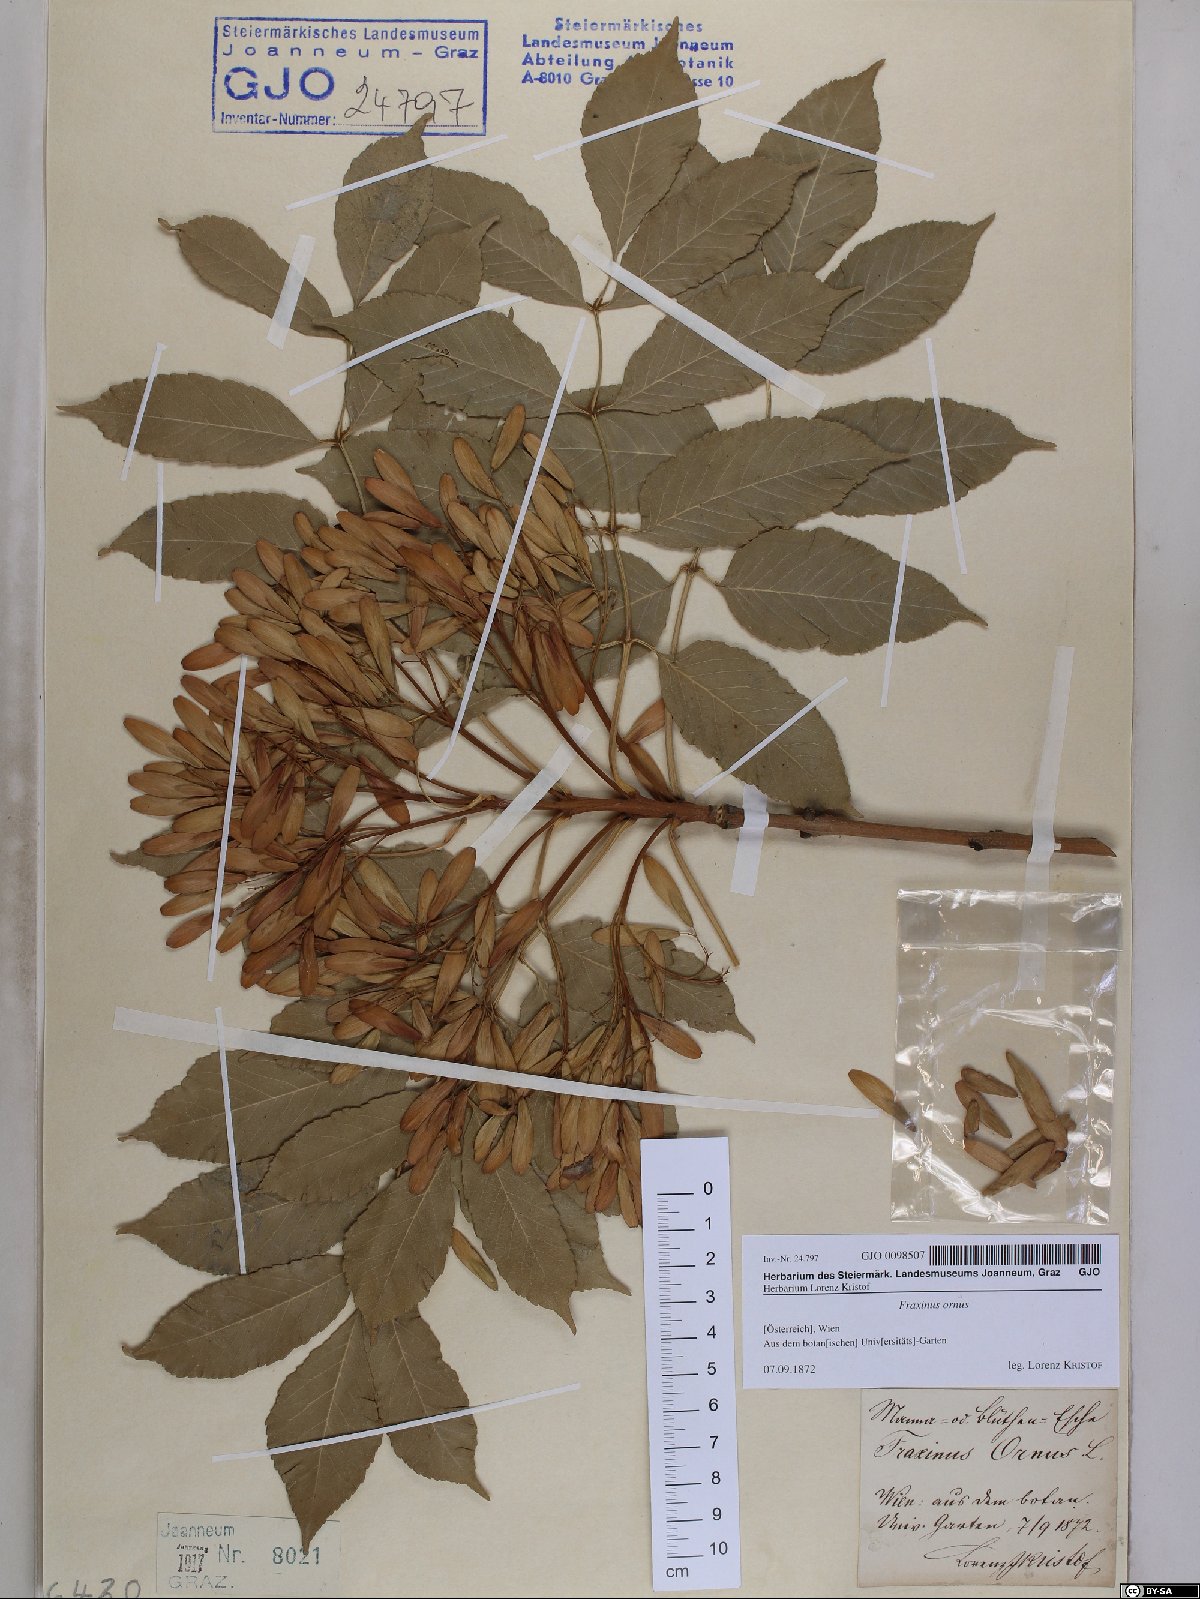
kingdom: Plantae
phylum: Tracheophyta
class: Magnoliopsida
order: Lamiales
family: Oleaceae
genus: Fraxinus
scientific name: Fraxinus ornus
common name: Manna ash
